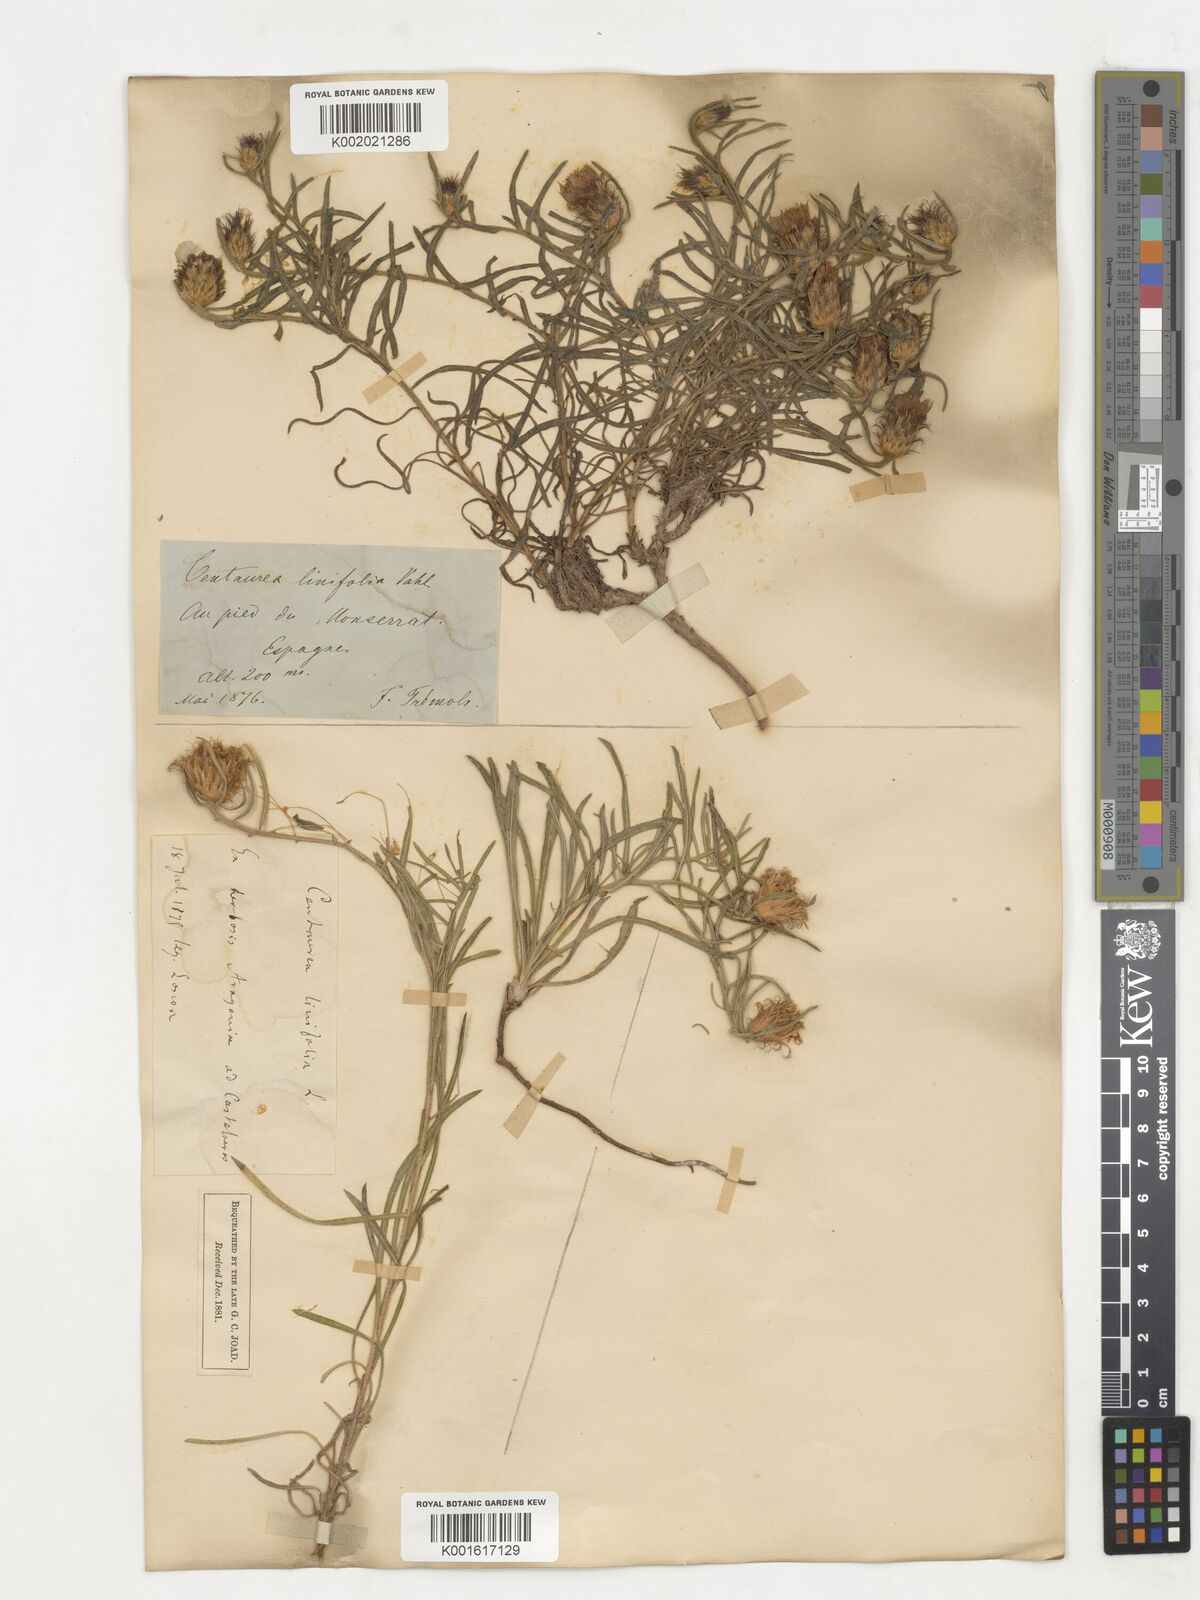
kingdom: Plantae
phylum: Tracheophyta
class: Magnoliopsida
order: Asterales
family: Asteraceae
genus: Centaurea
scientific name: Centaurea linifolia
